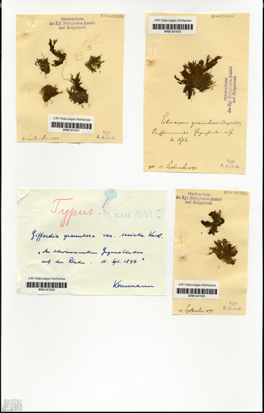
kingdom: Chromista
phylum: Ochrophyta
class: Phaeophyceae
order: Ectocarpales
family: Acinetosporaceae
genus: Hincksia
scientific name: Hincksia granulosa
